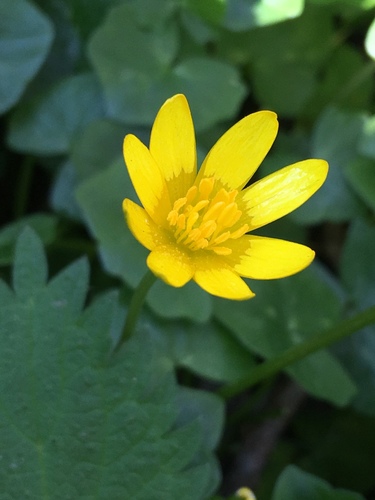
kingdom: Plantae
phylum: Tracheophyta
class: Magnoliopsida
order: Ranunculales
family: Ranunculaceae
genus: Ficaria
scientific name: Ficaria verna
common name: Lesser celandine
